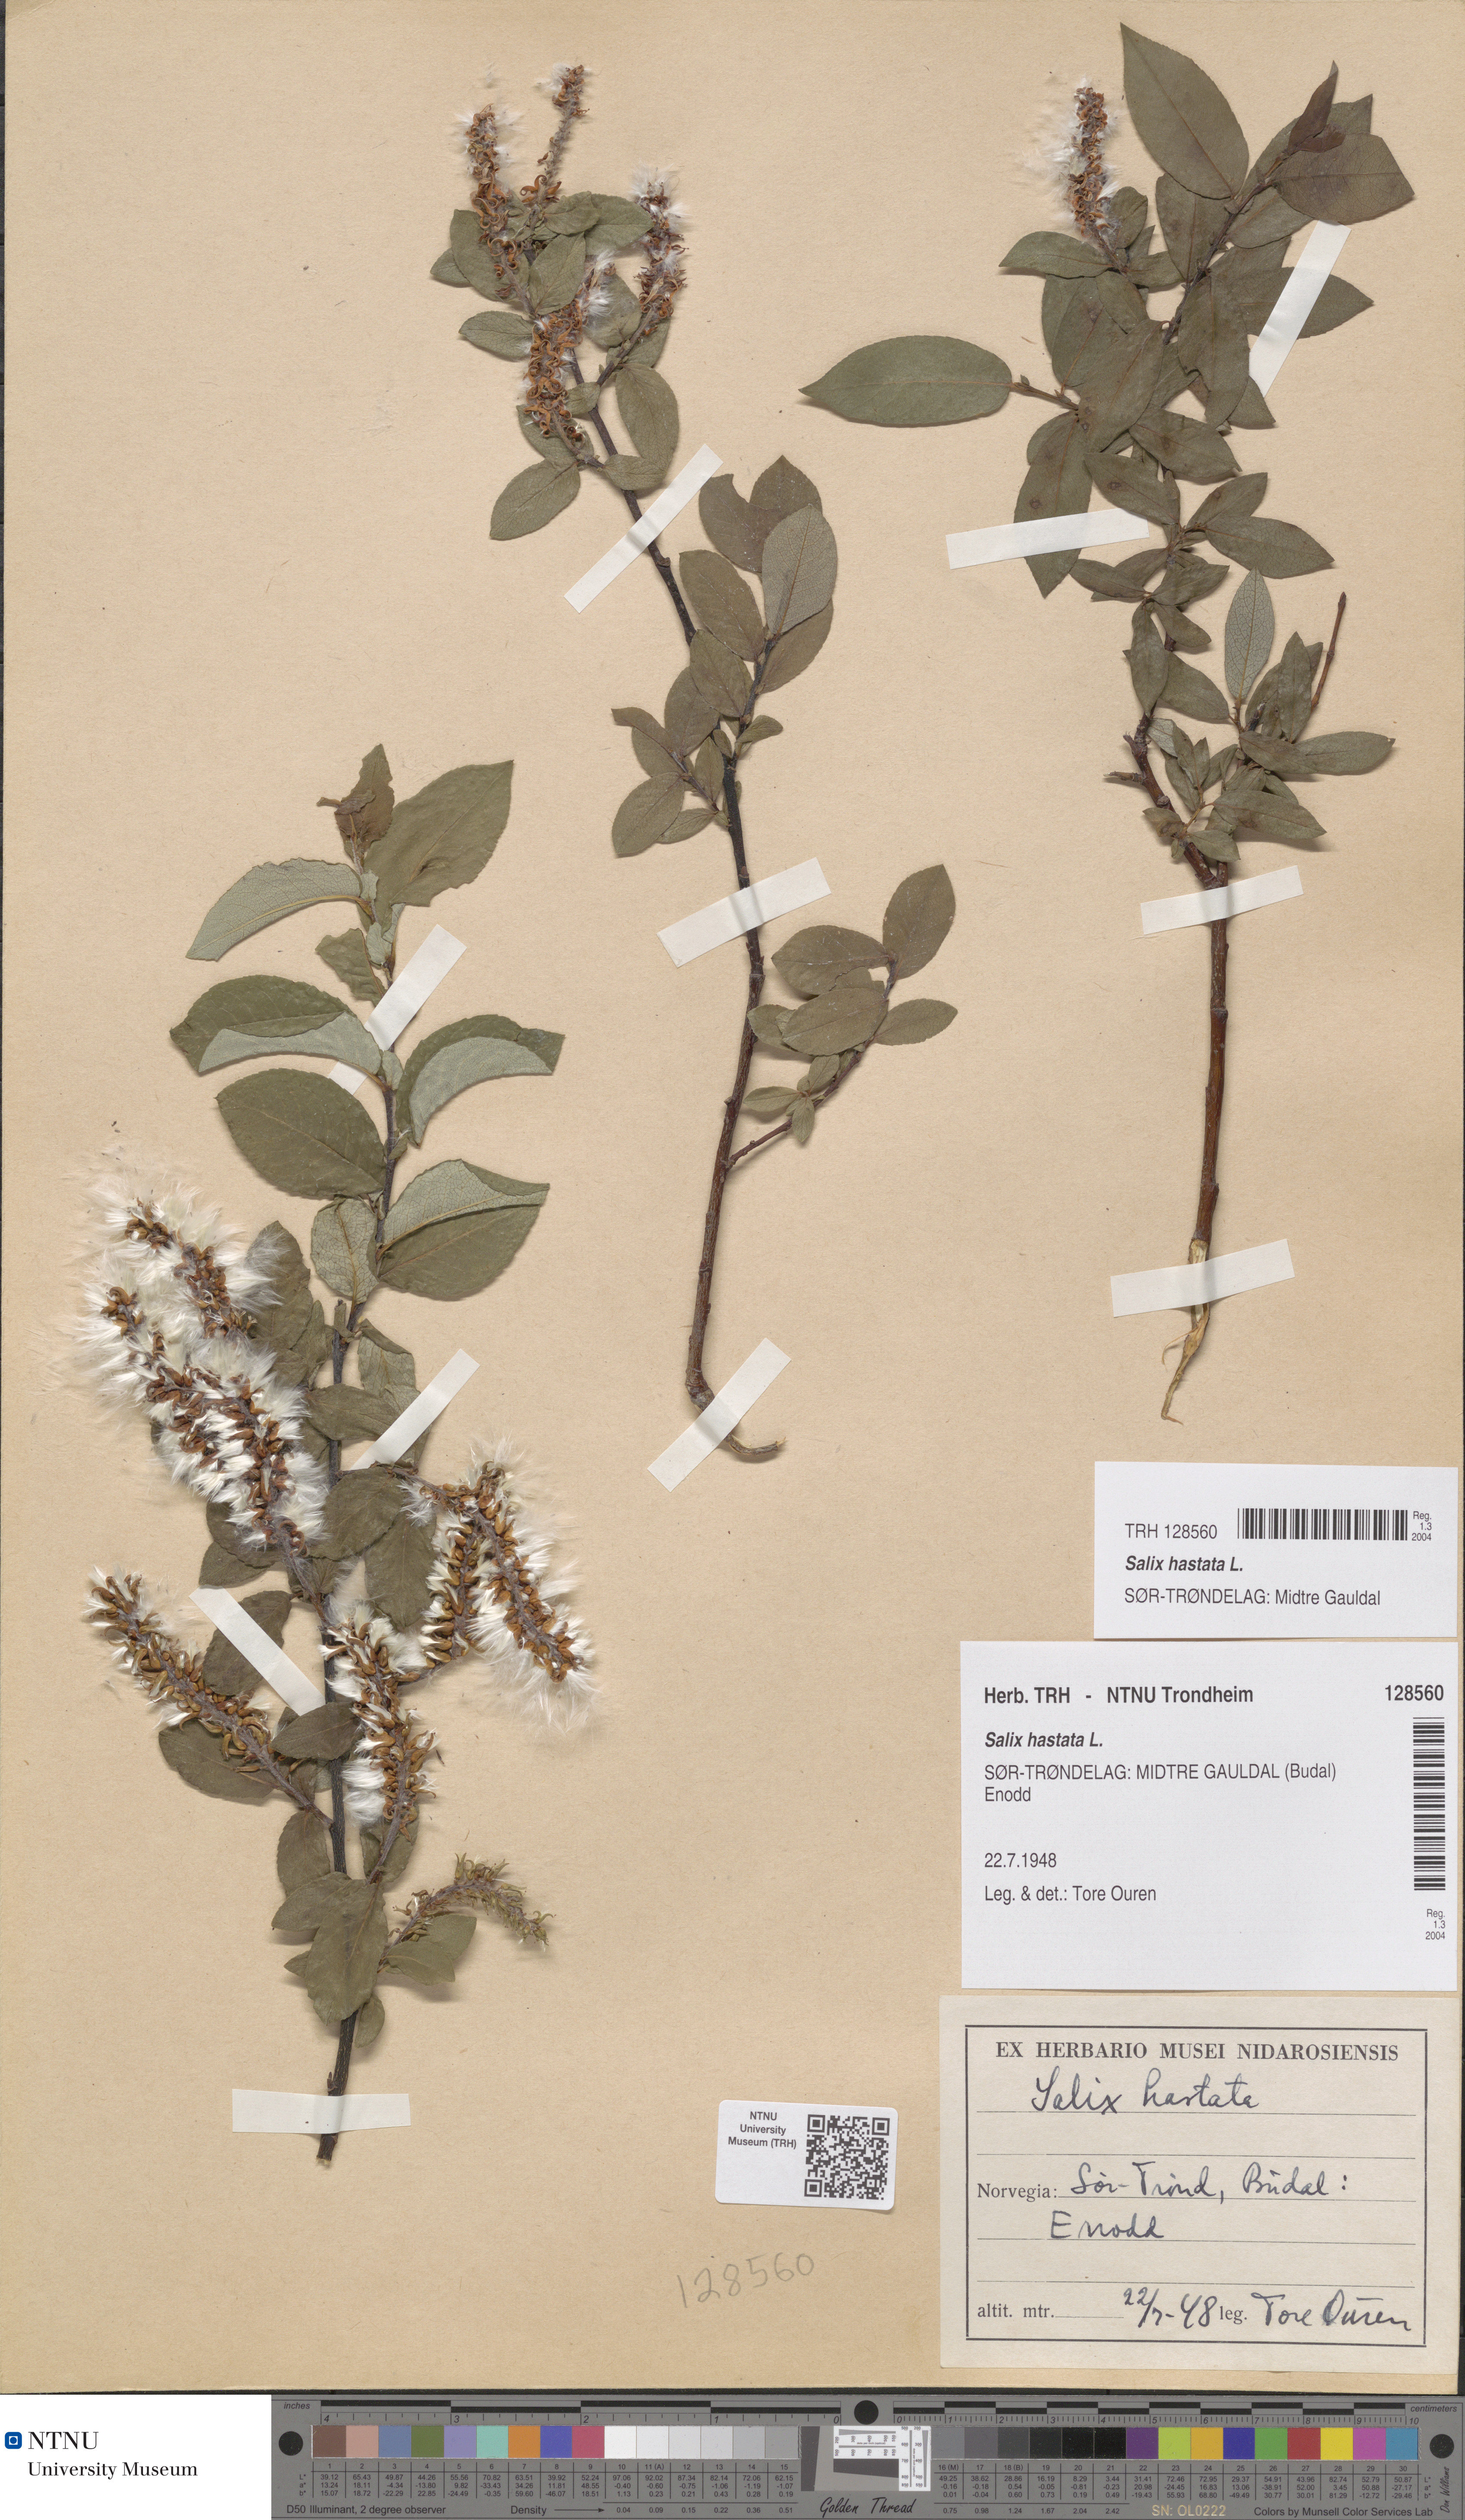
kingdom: Plantae
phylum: Tracheophyta
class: Magnoliopsida
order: Malpighiales
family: Salicaceae
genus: Salix
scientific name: Salix hastata
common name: Halberd willow
